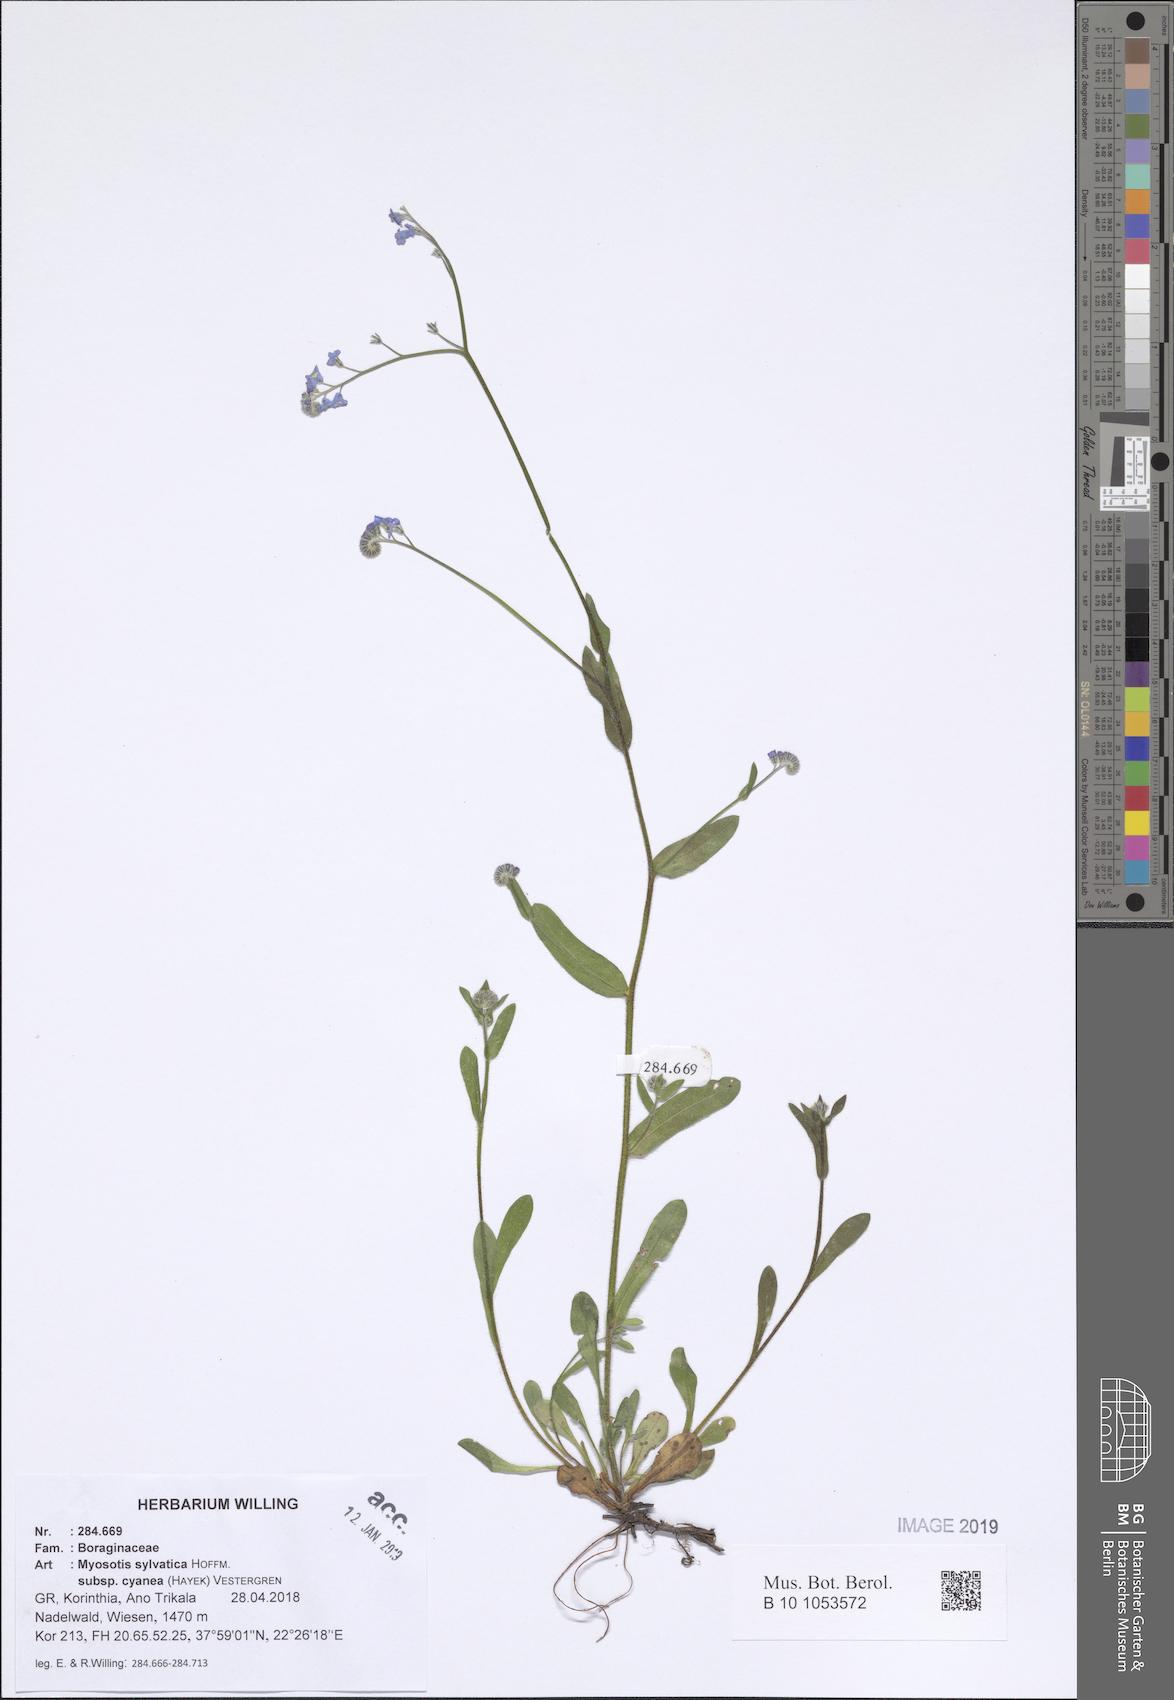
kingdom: Plantae
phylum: Tracheophyta
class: Magnoliopsida
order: Boraginales
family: Boraginaceae
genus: Myosotis
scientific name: Myosotis sylvatica
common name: Wood forget-me-not
